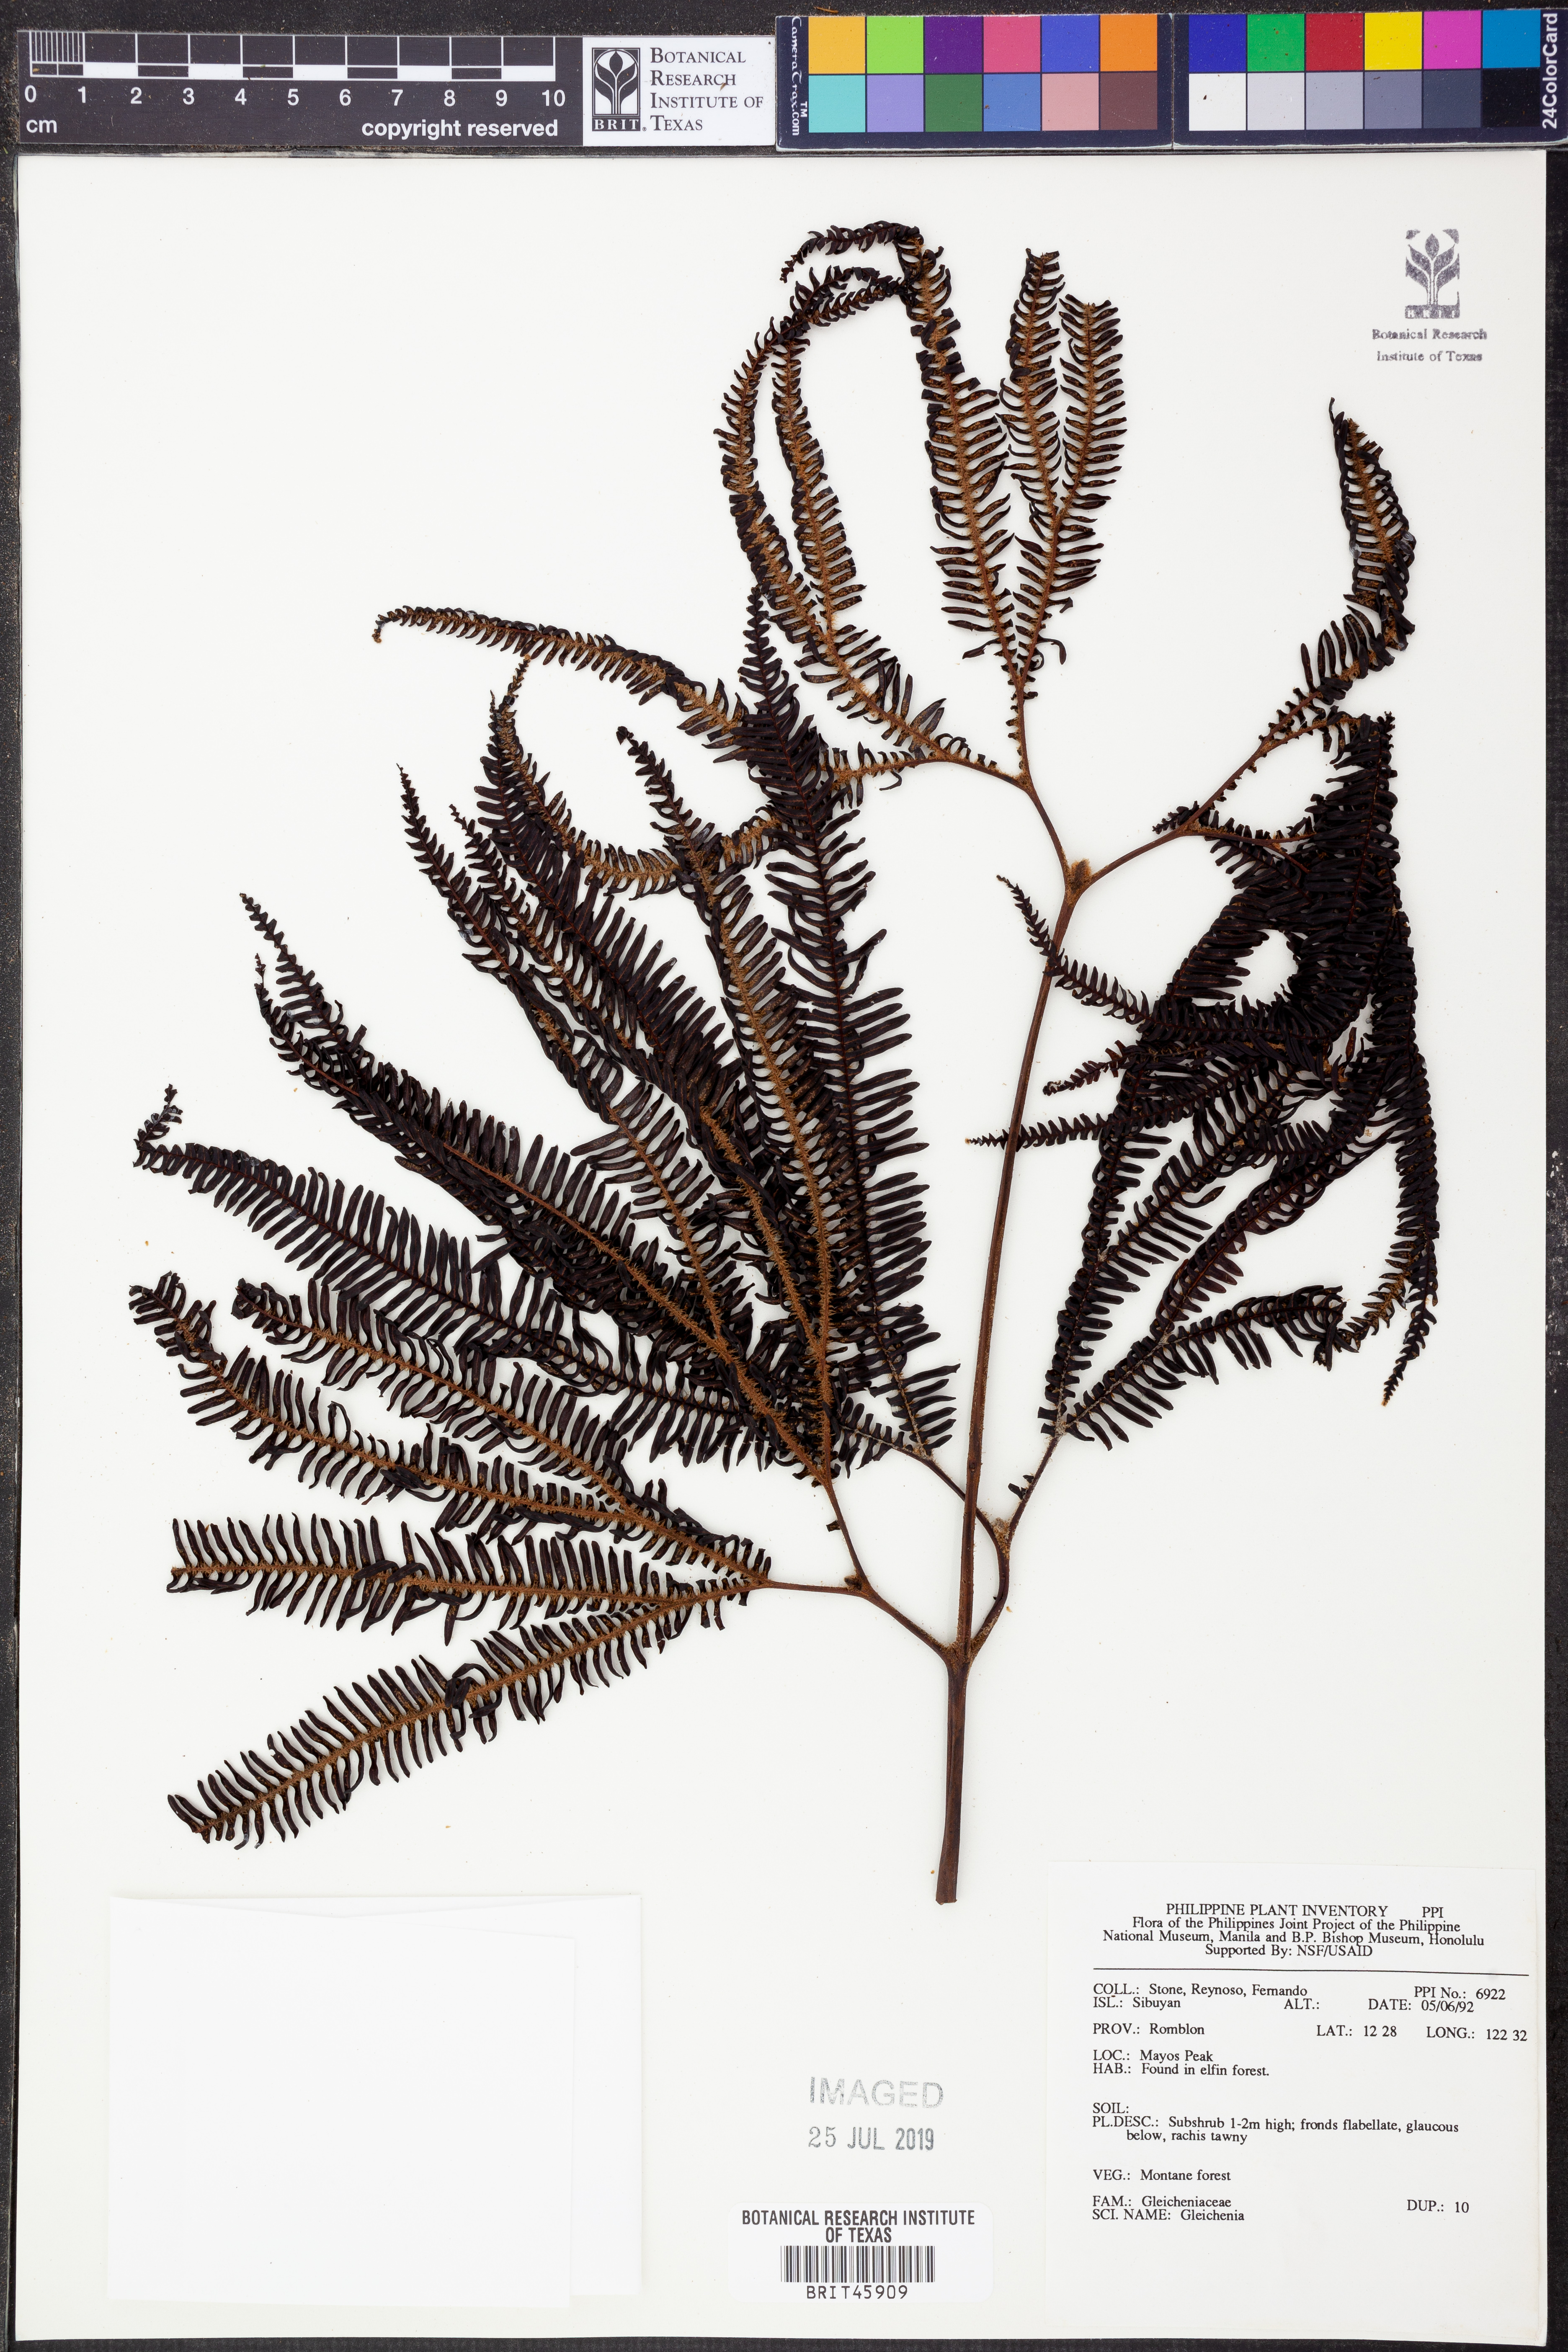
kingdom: Plantae
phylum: Tracheophyta
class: Polypodiopsida
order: Gleicheniales
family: Gleicheniaceae
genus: Gleichenia
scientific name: Gleichenia
